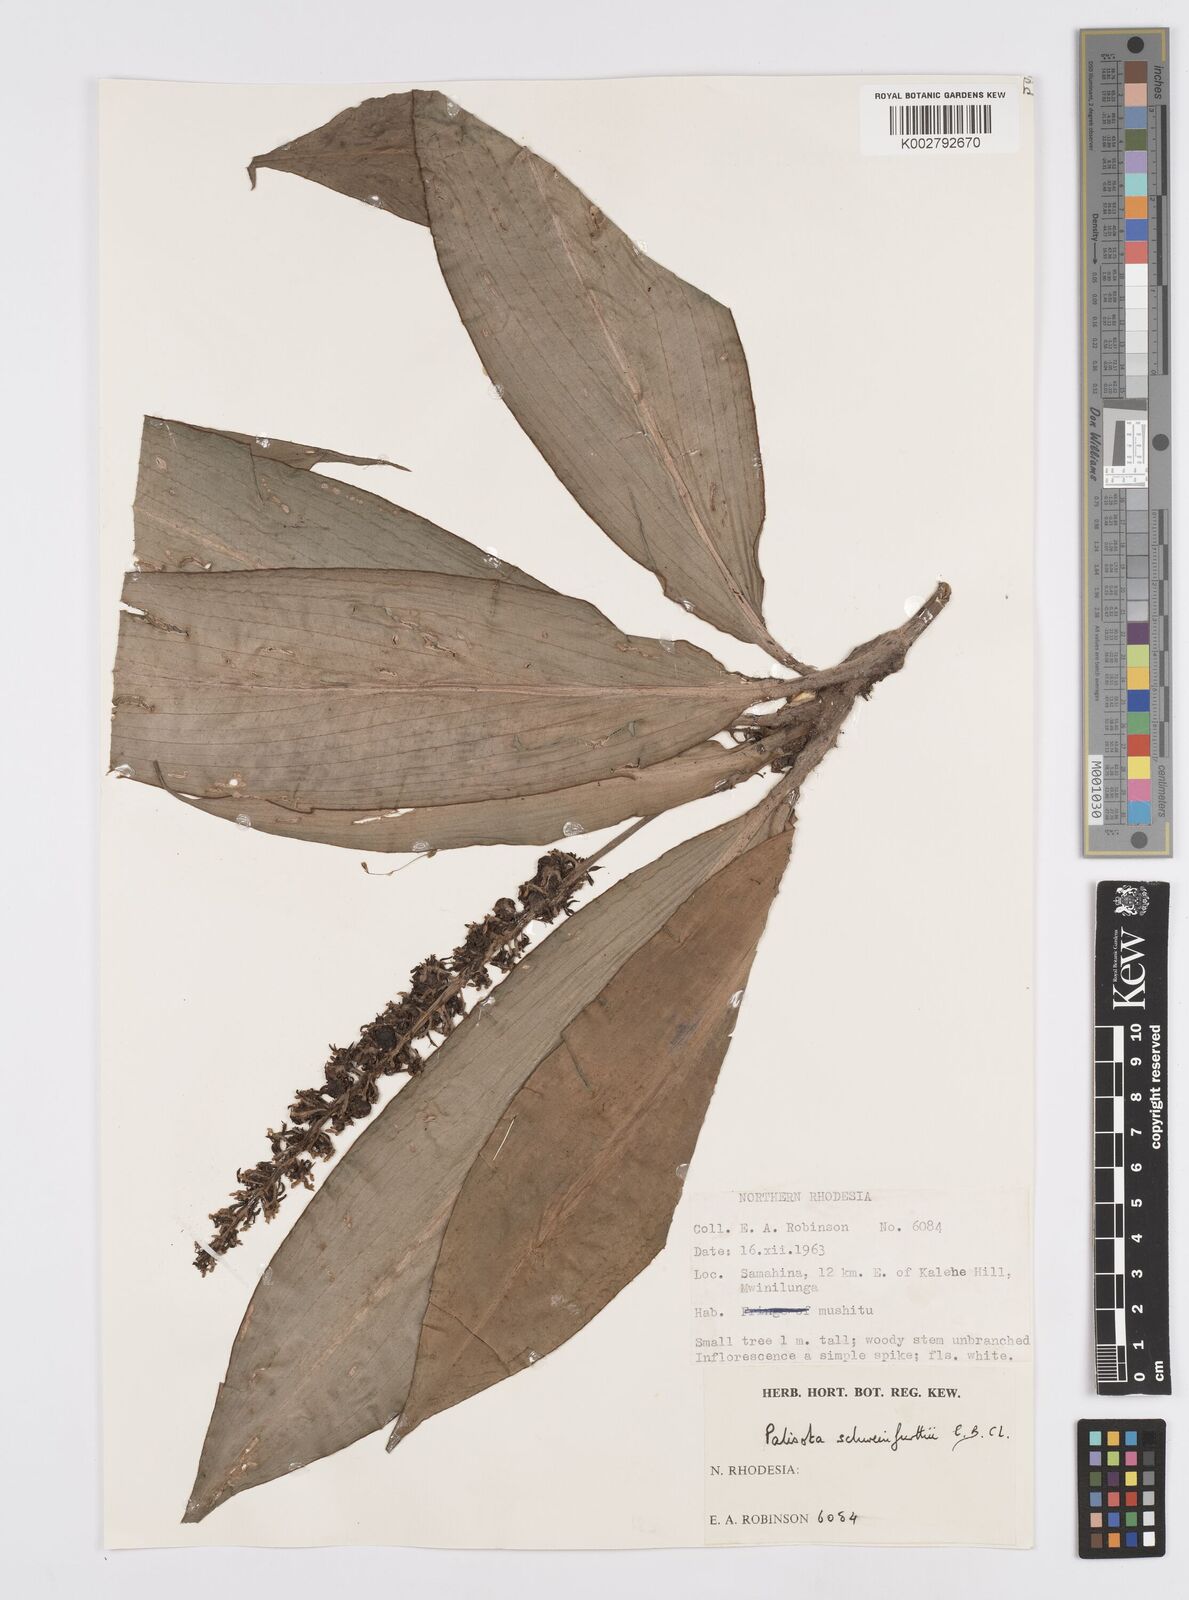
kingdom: Plantae
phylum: Tracheophyta
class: Liliopsida
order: Commelinales
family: Commelinaceae
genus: Palisota
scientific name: Palisota schweinfurthii
